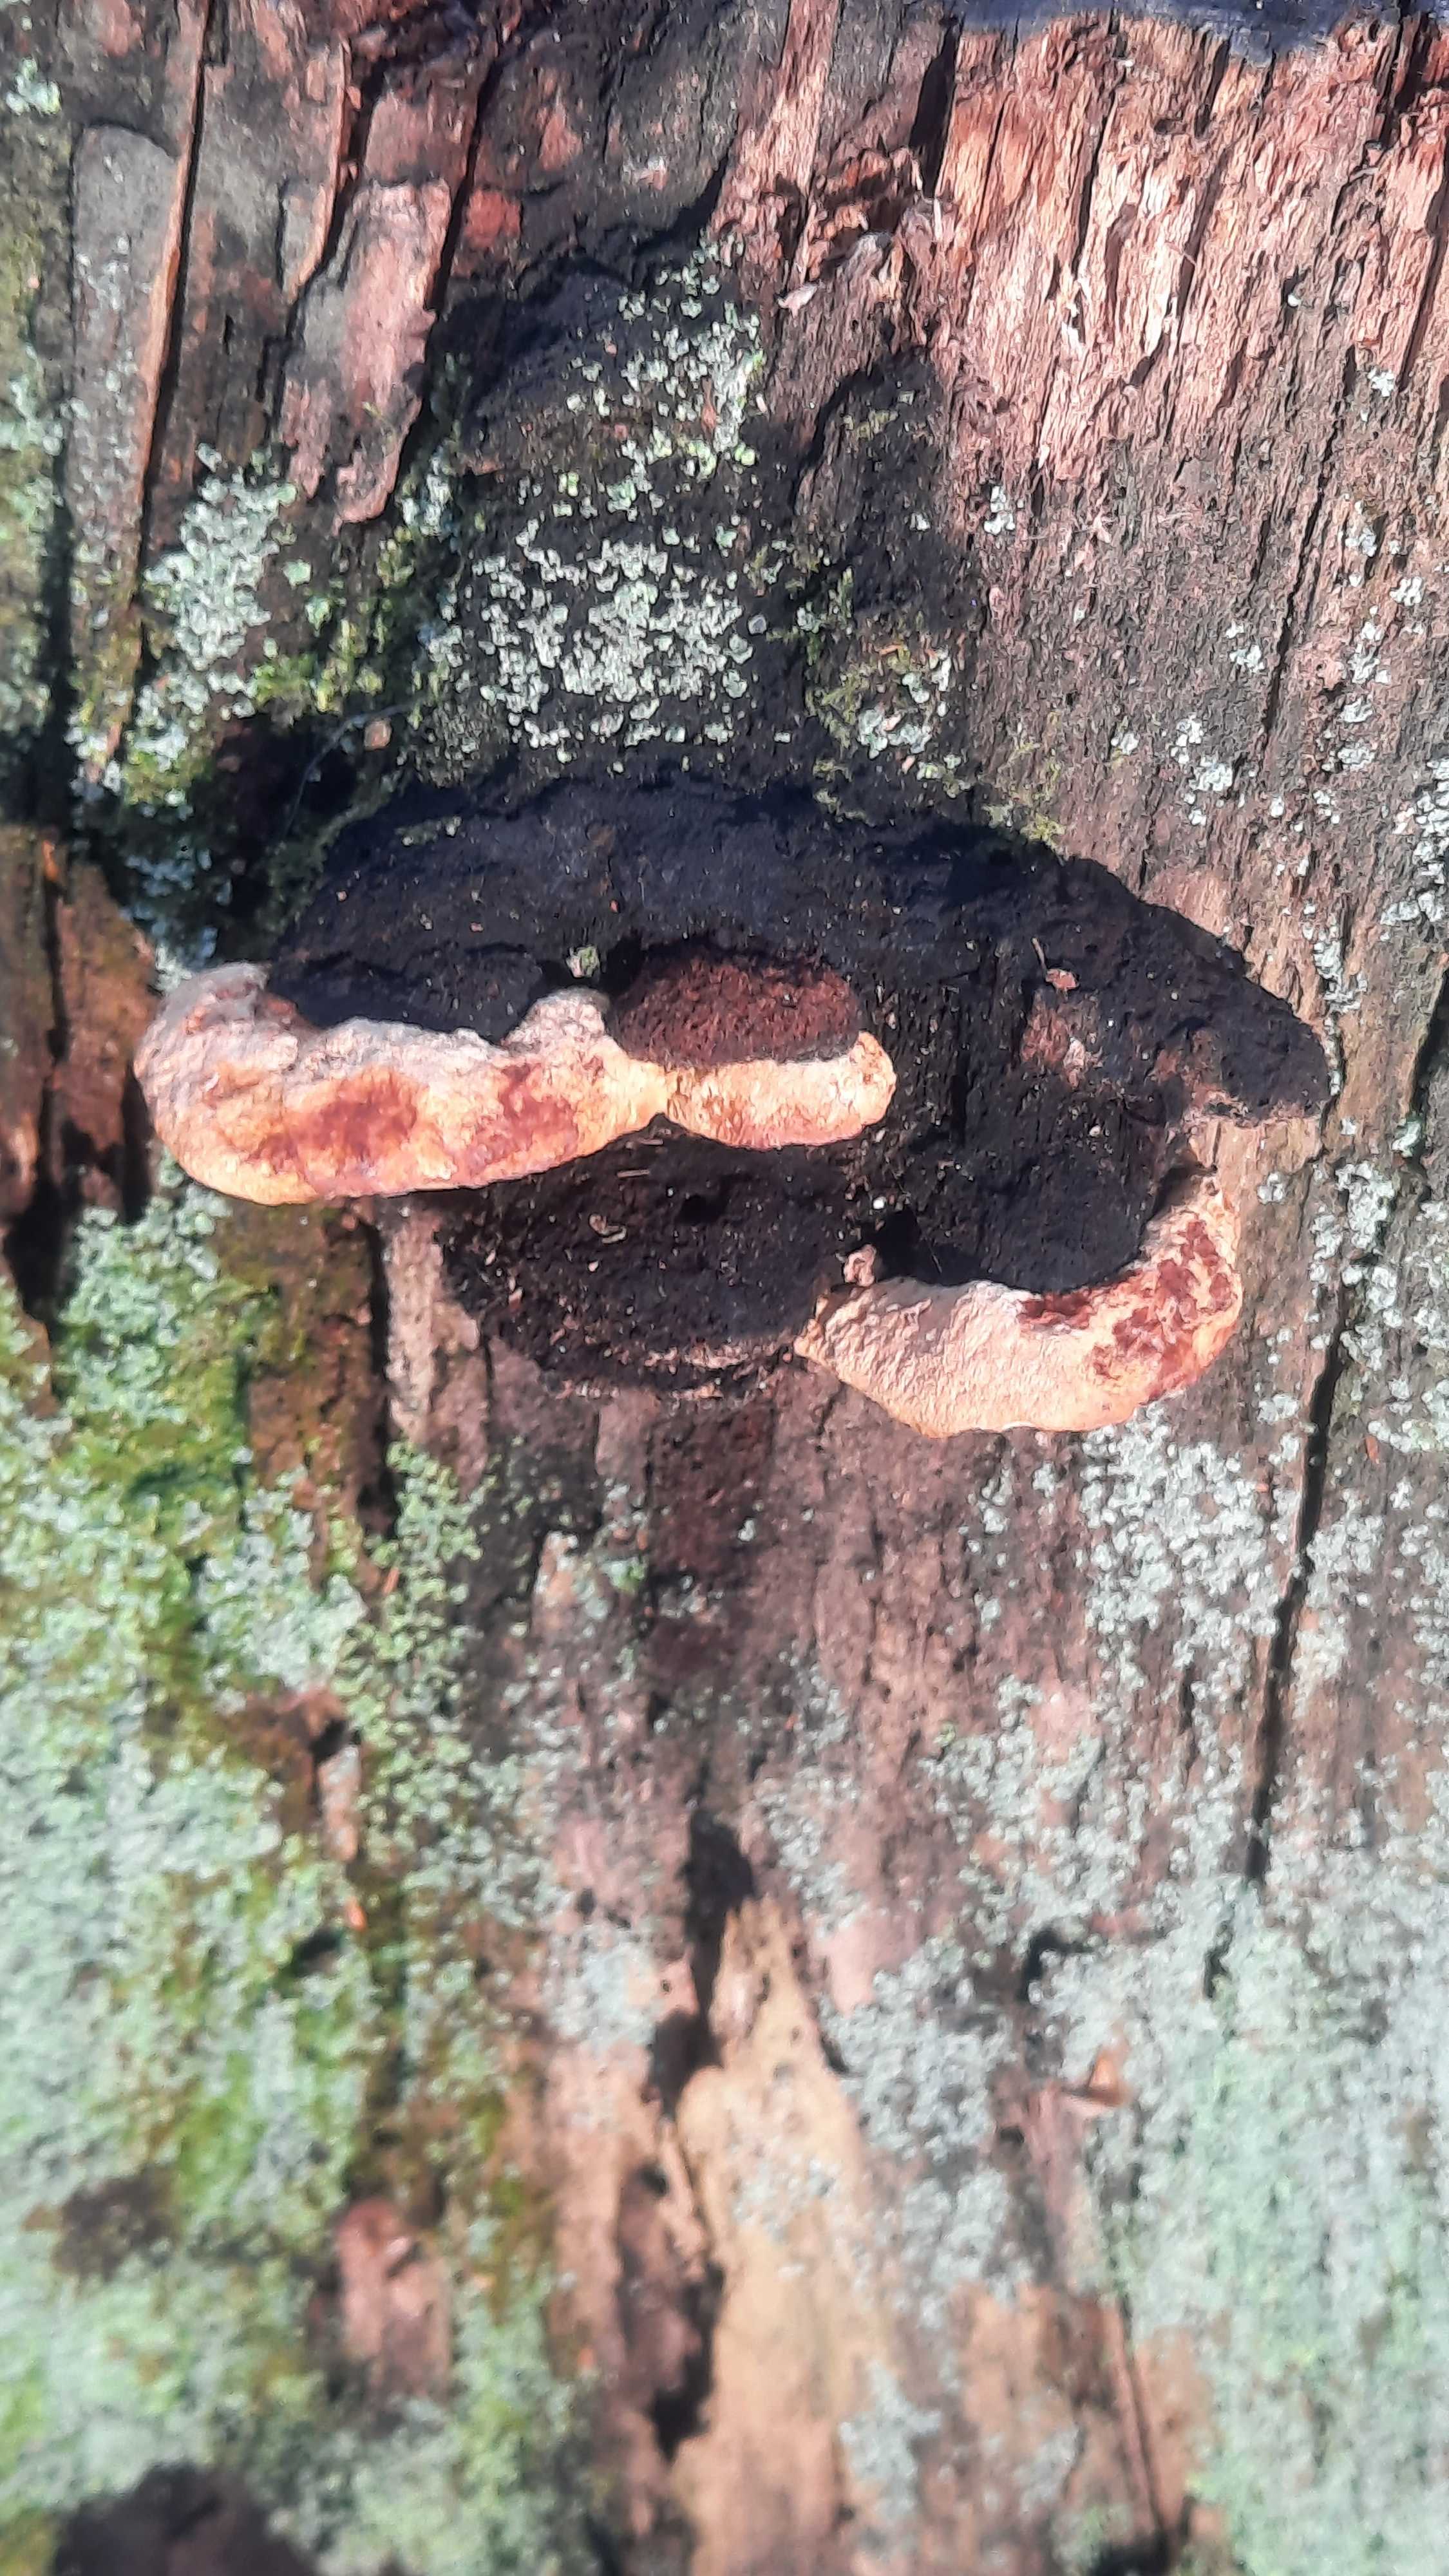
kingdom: Fungi
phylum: Basidiomycota
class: Agaricomycetes
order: Gloeophyllales
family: Gloeophyllaceae
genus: Gloeophyllum
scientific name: Gloeophyllum odoratum
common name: duftende korkhat
